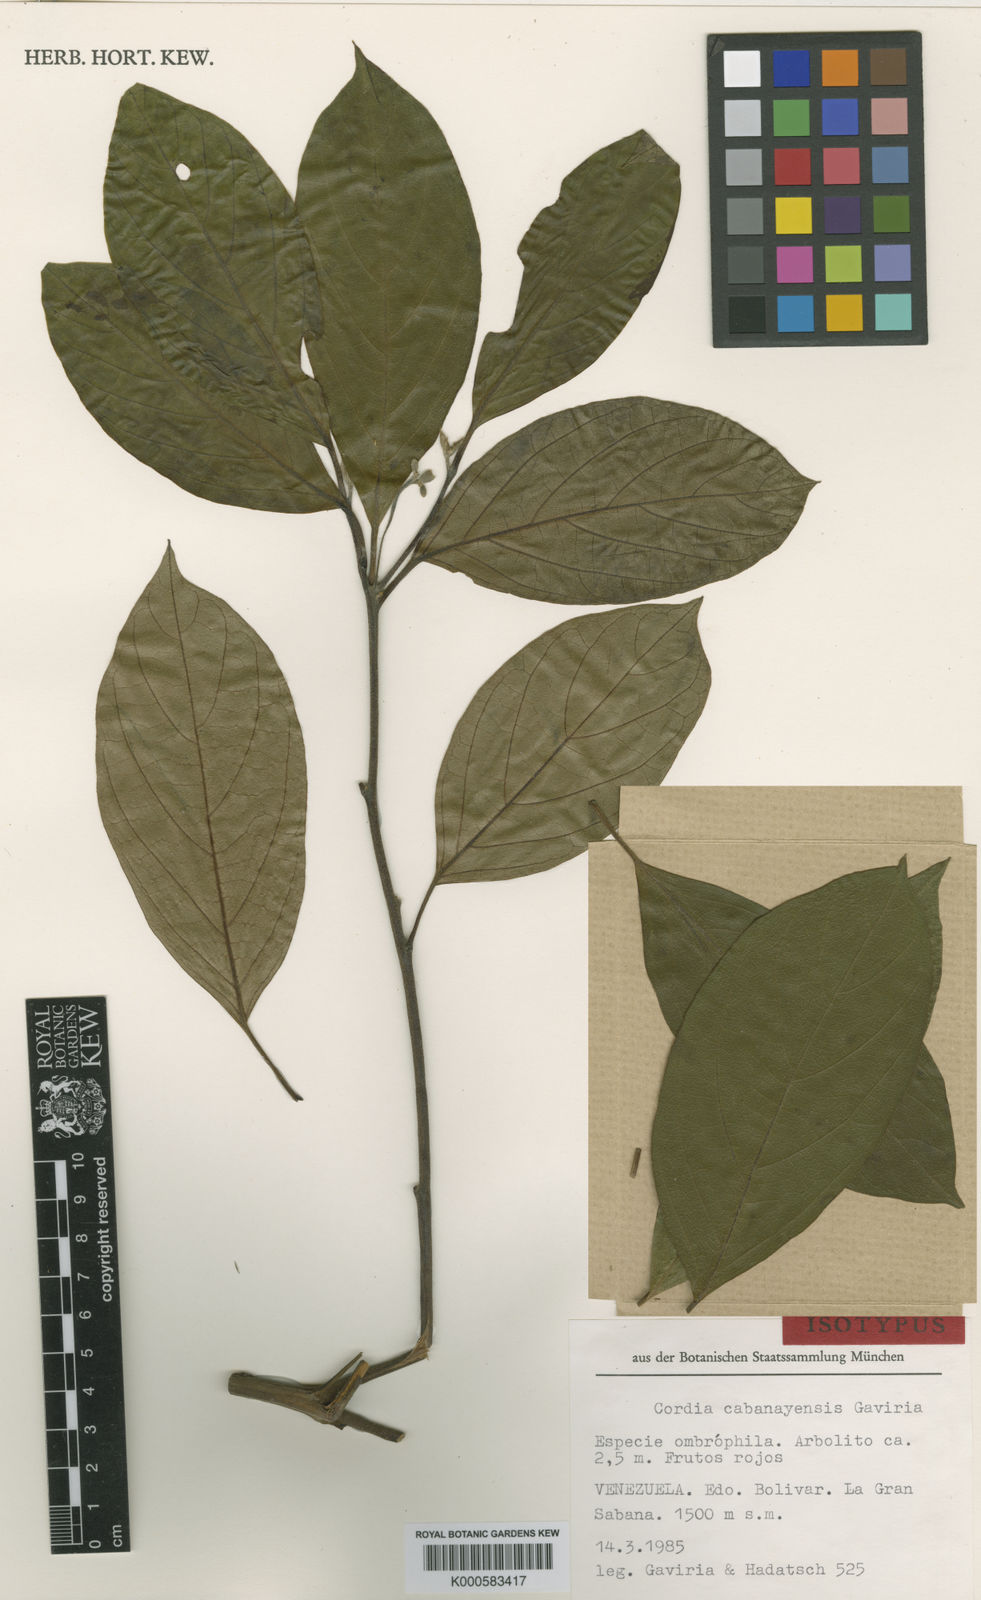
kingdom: Plantae
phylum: Tracheophyta
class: Magnoliopsida
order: Boraginales
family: Cordiaceae
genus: Cordia
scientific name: Cordia cabanayensis
